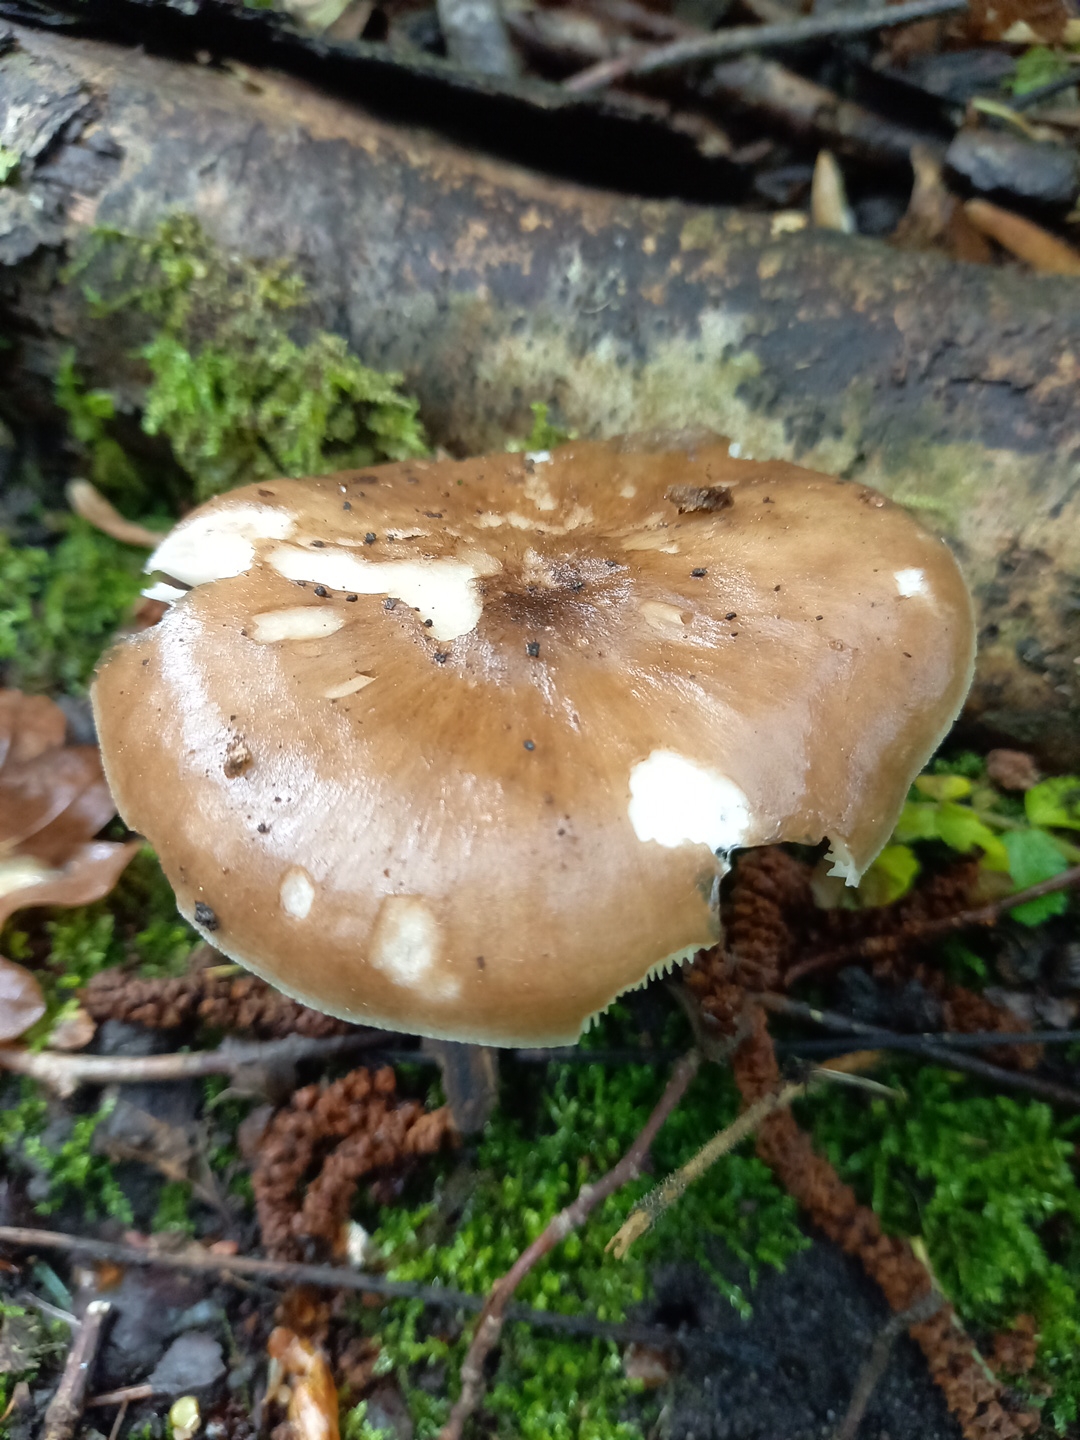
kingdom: Fungi
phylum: Basidiomycota
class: Agaricomycetes
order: Agaricales
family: Pluteaceae
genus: Pluteus
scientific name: Pluteus cervinus
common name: sodfarvet skærmhat
